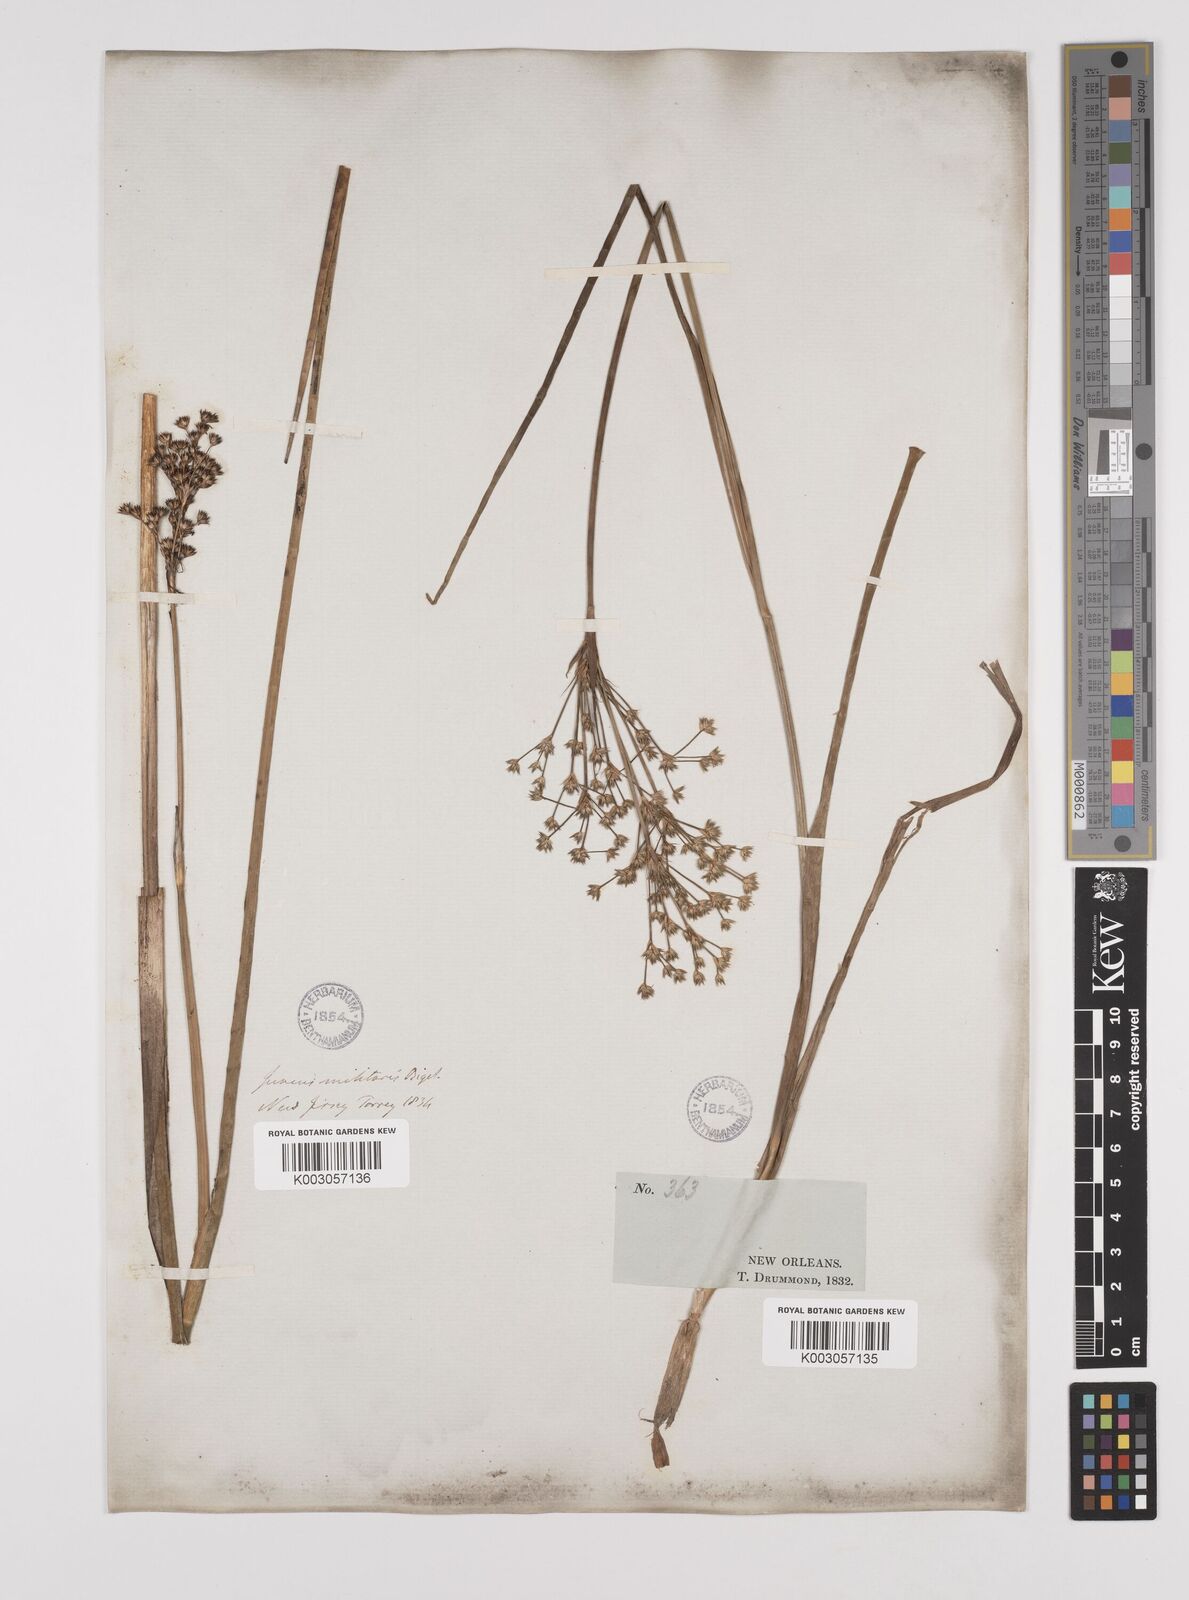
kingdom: Plantae
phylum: Tracheophyta
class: Liliopsida
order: Poales
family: Juncaceae
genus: Juncus
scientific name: Juncus militaris
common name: Bayonet rush
